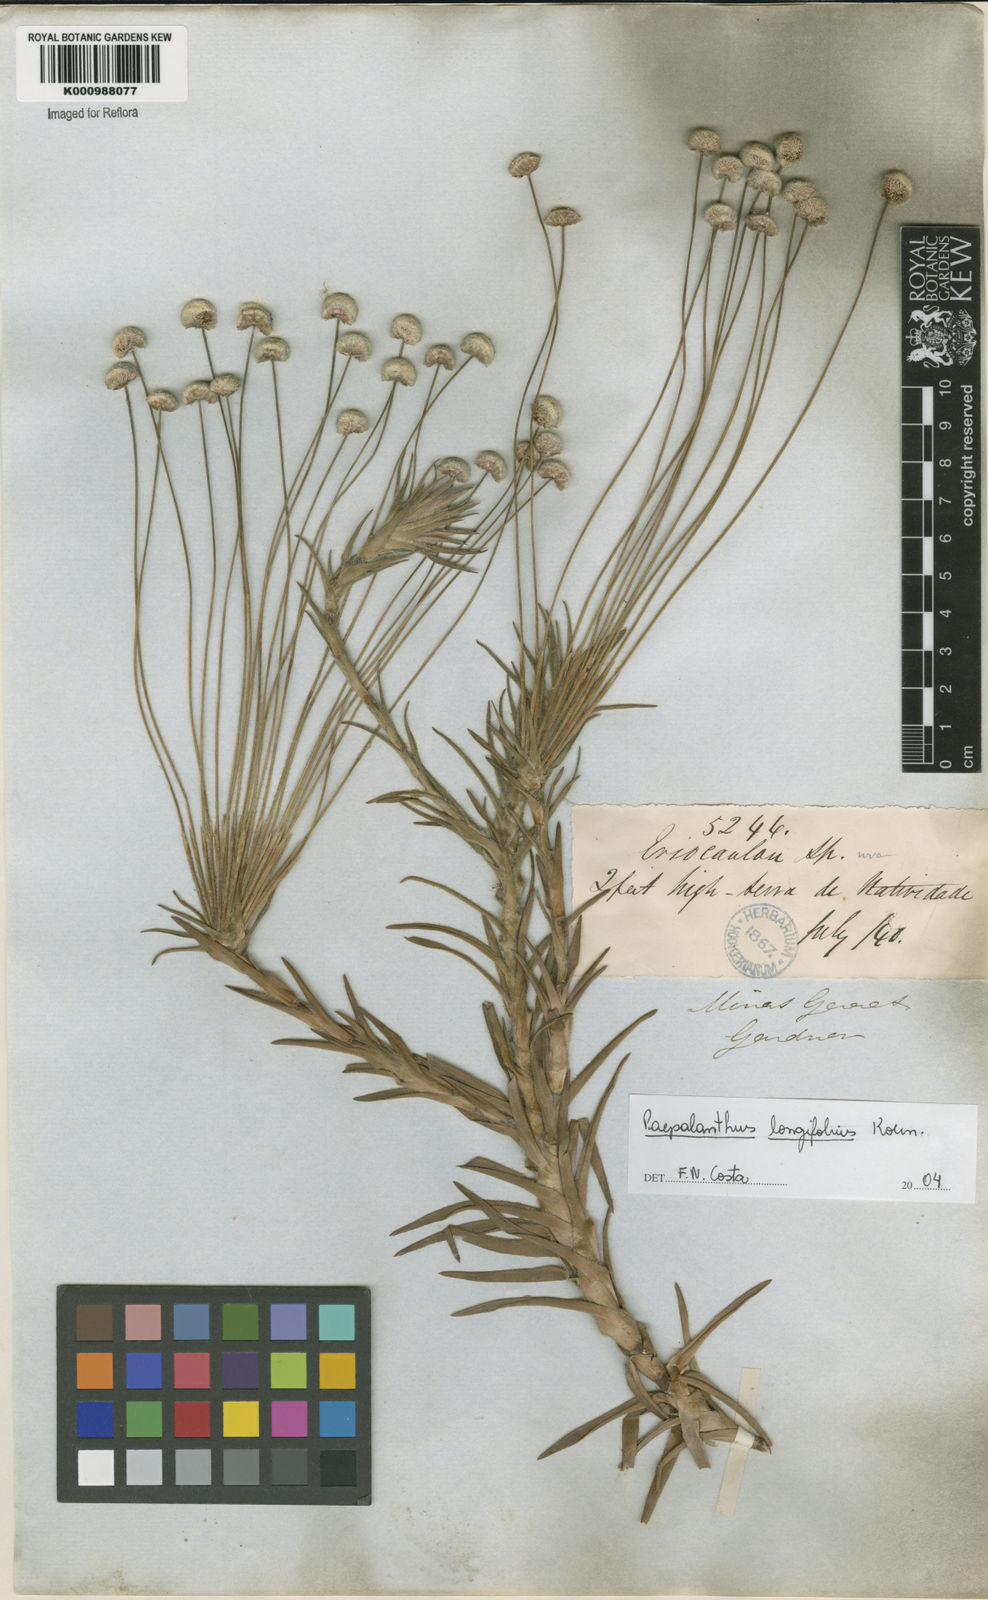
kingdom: Plantae
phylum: Tracheophyta
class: Liliopsida
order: Poales
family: Eriocaulaceae
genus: Paepalanthus
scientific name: Paepalanthus
